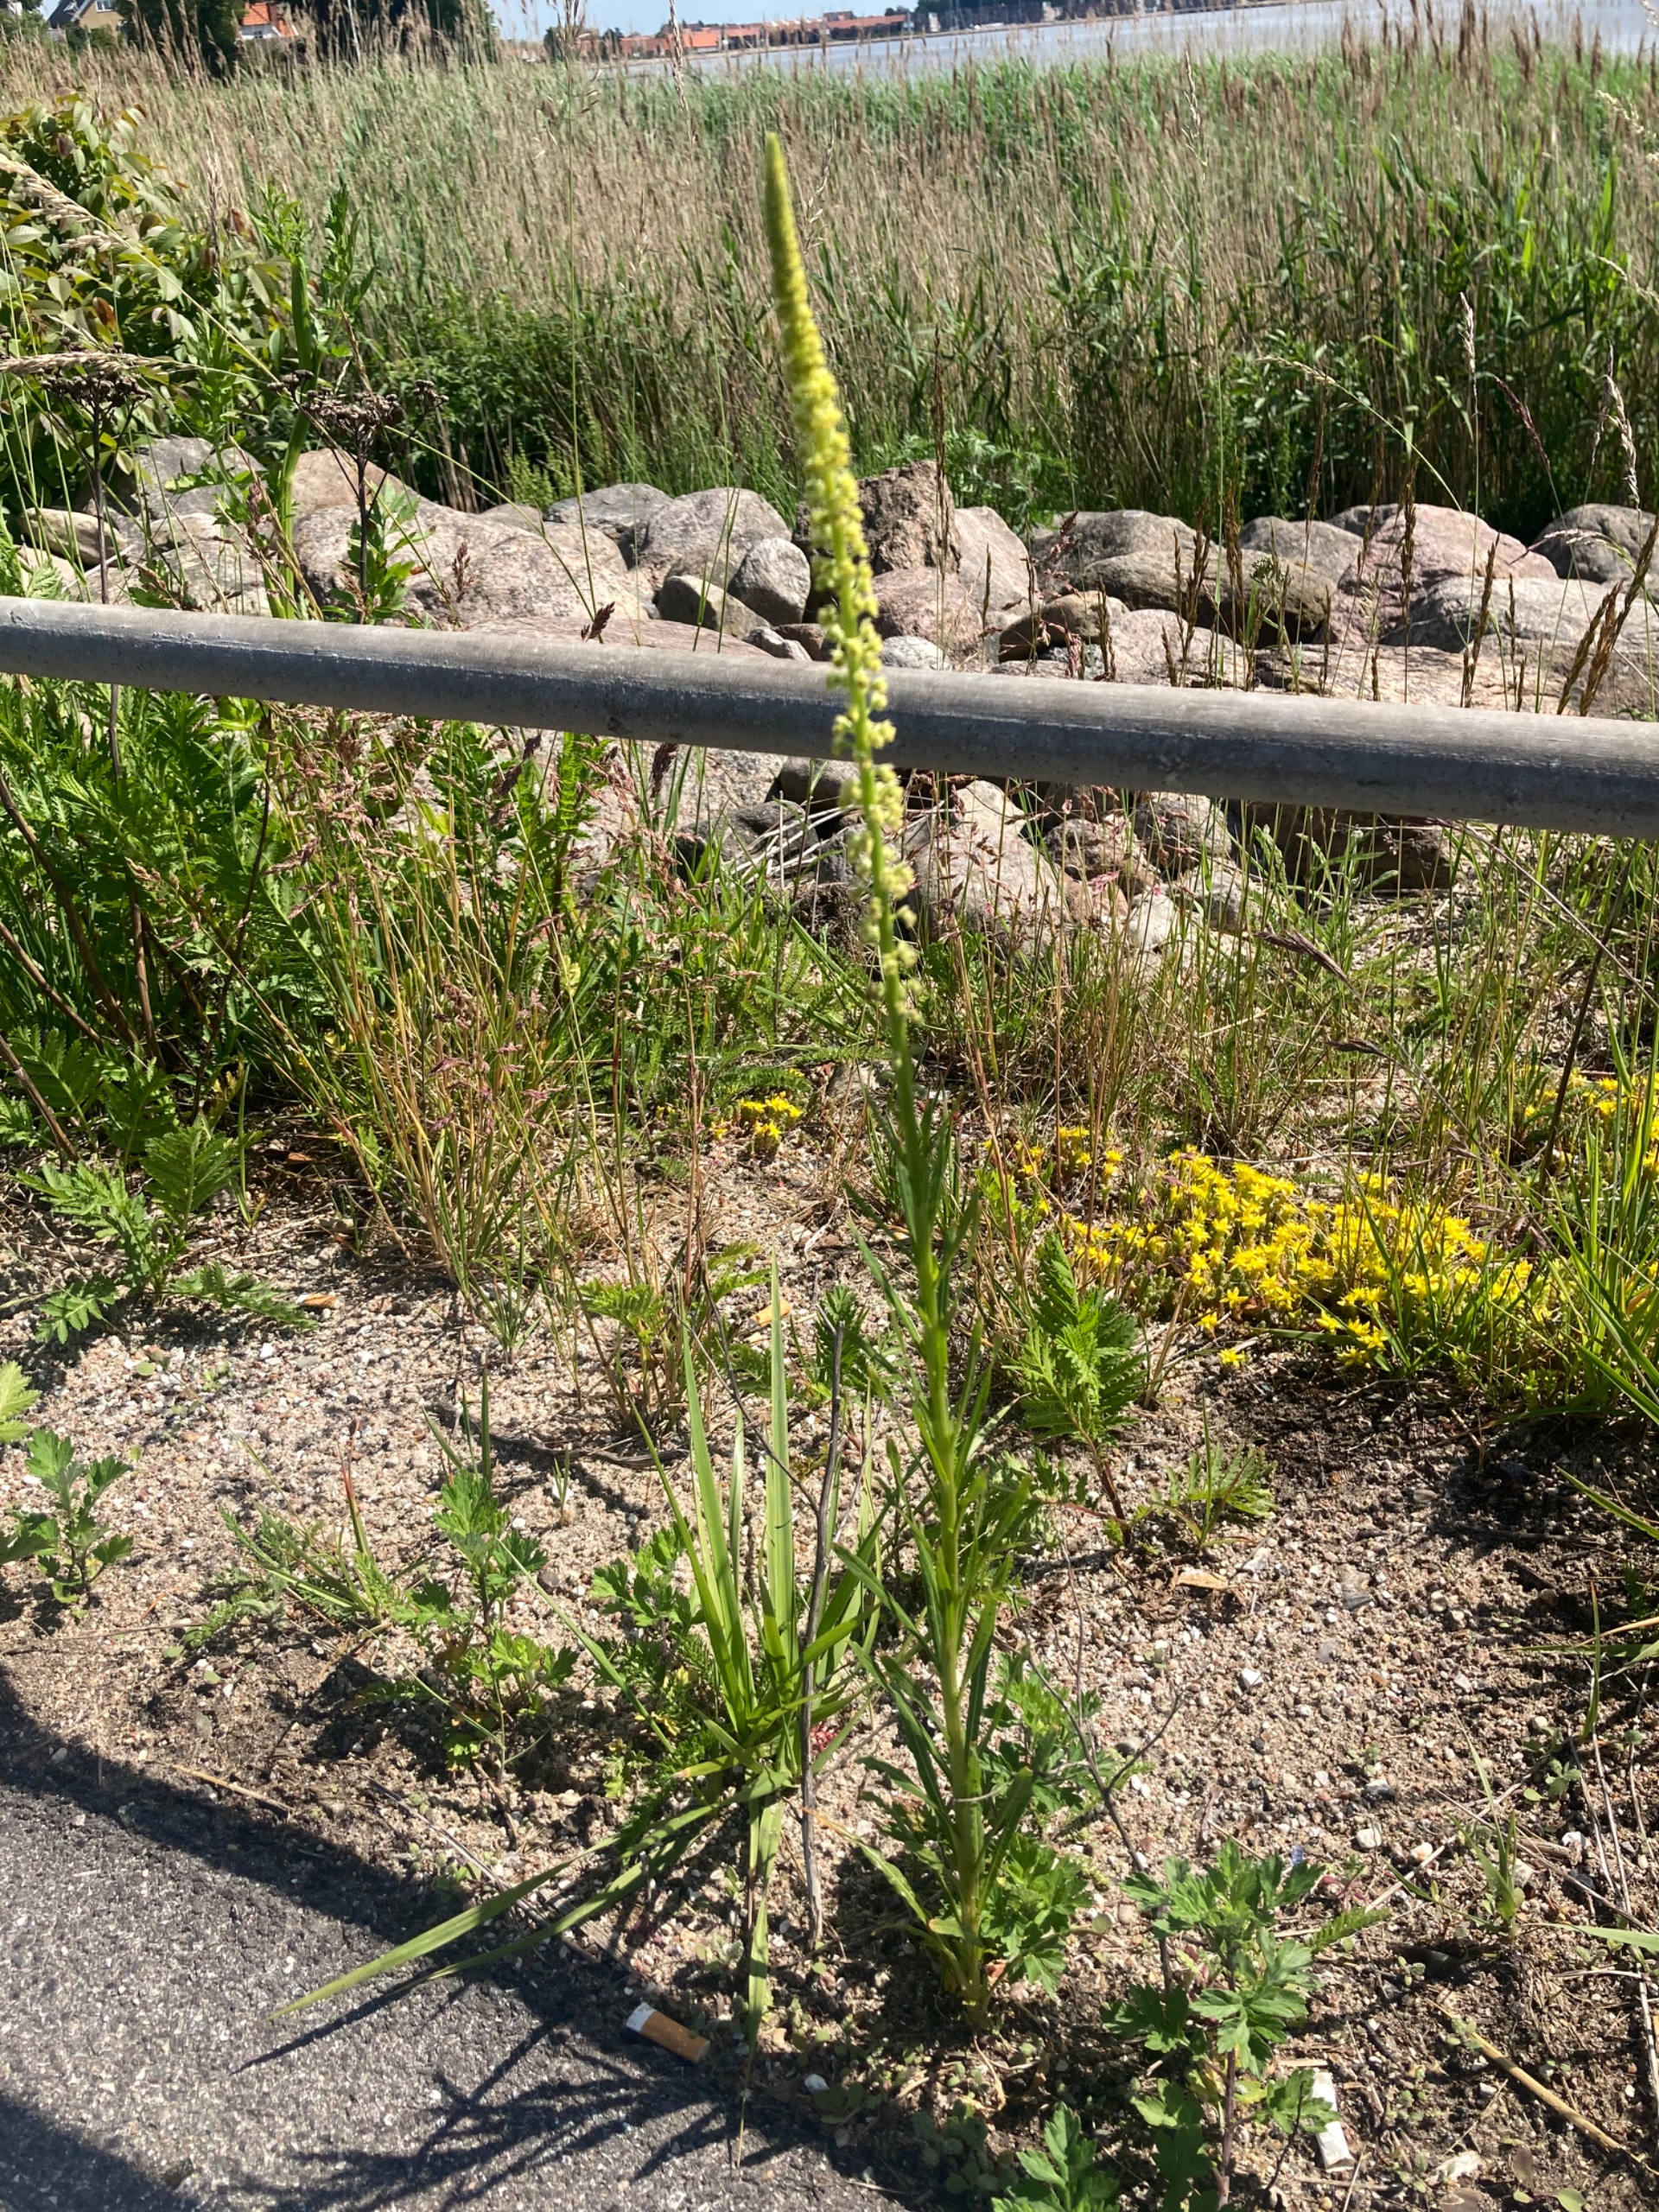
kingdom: Plantae
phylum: Tracheophyta
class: Magnoliopsida
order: Brassicales
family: Resedaceae
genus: Reseda
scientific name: Reseda luteola
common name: Farve-reseda
